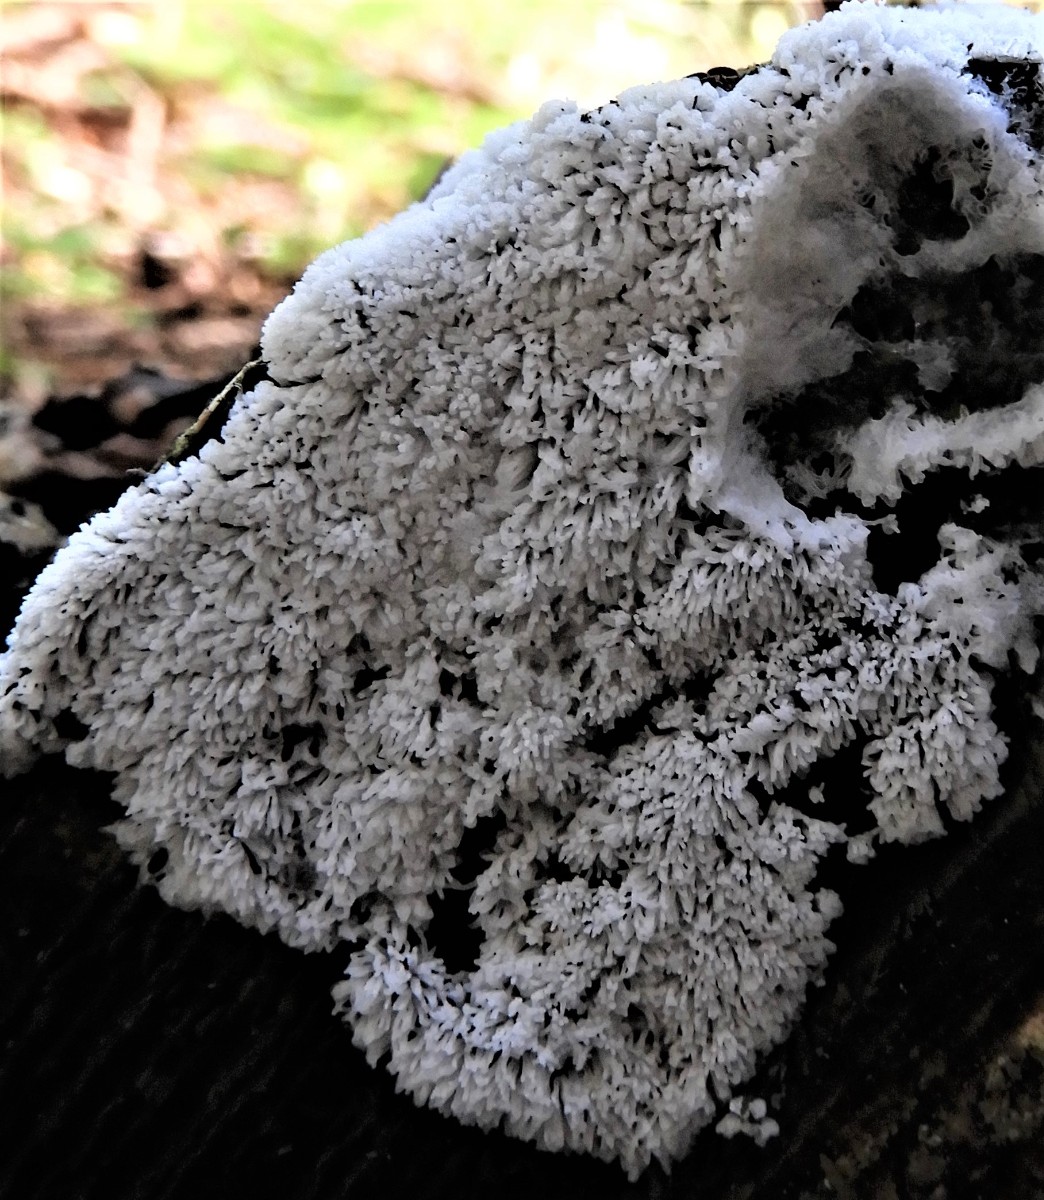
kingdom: Protozoa
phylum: Mycetozoa
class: Protosteliomycetes
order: Ceratiomyxales
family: Ceratiomyxaceae
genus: Ceratiomyxa
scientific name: Ceratiomyxa fruticulosa
